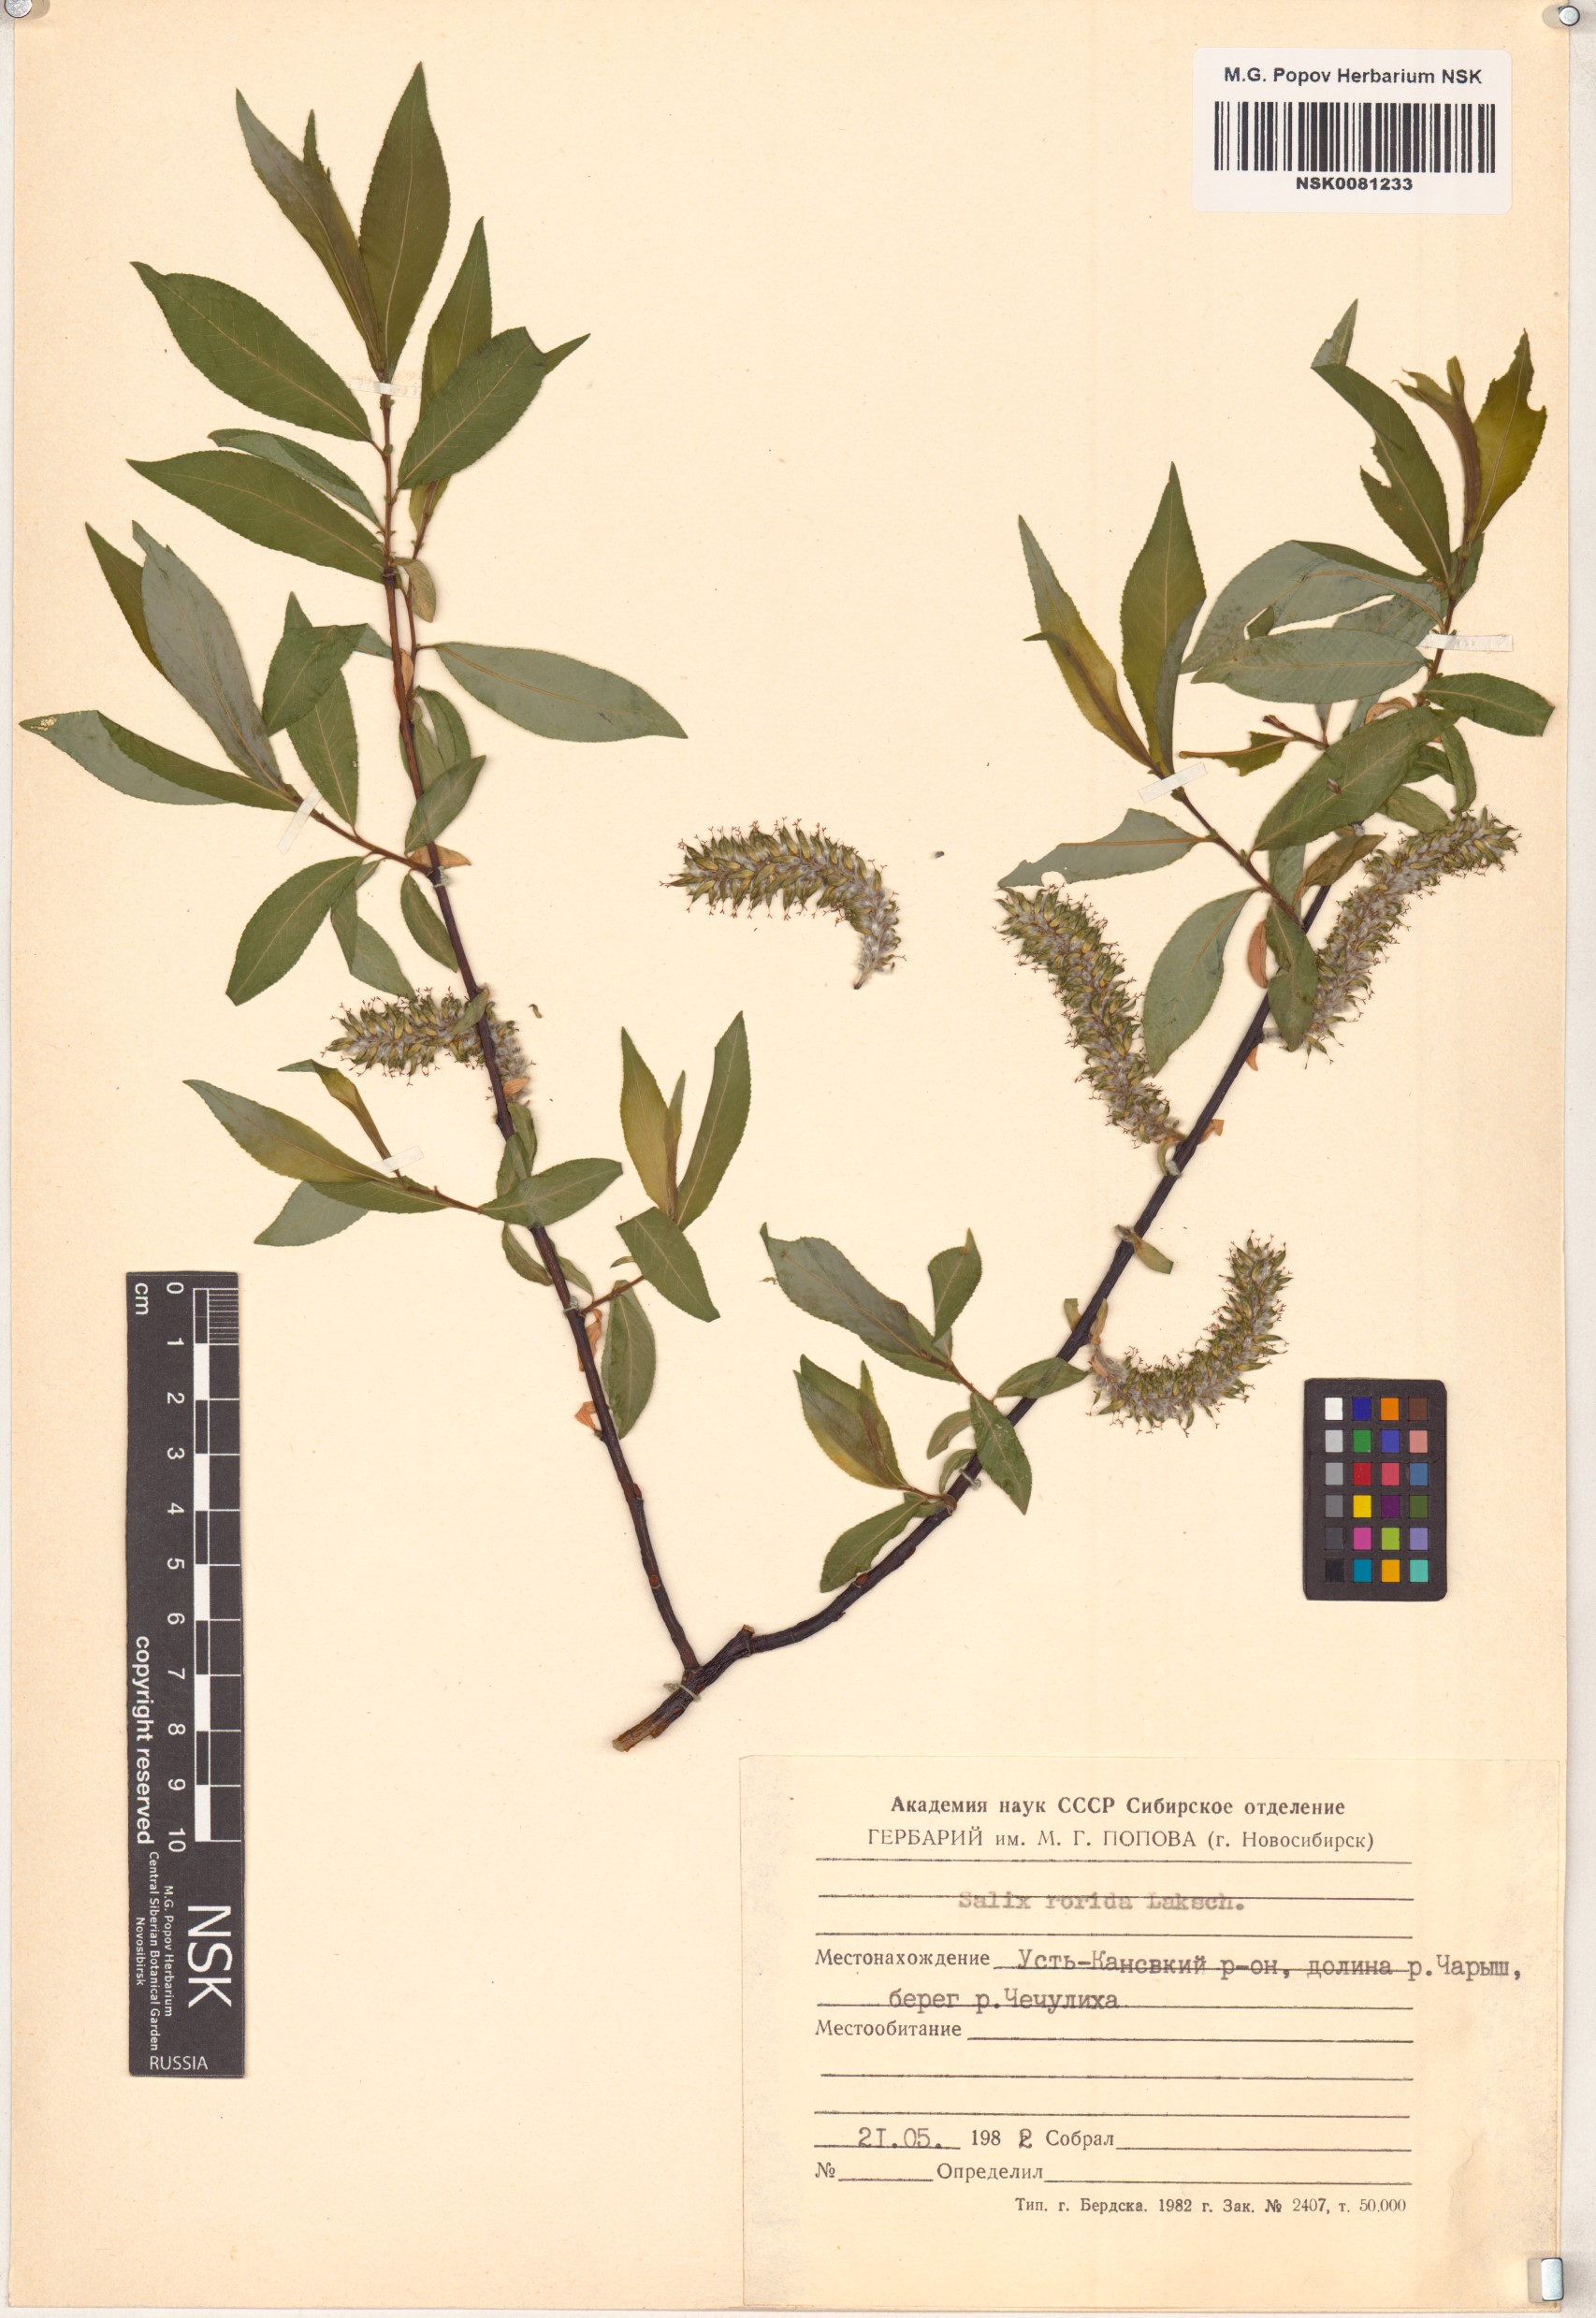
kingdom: Plantae
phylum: Tracheophyta
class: Magnoliopsida
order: Malpighiales
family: Salicaceae
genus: Salix
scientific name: Salix rorida
